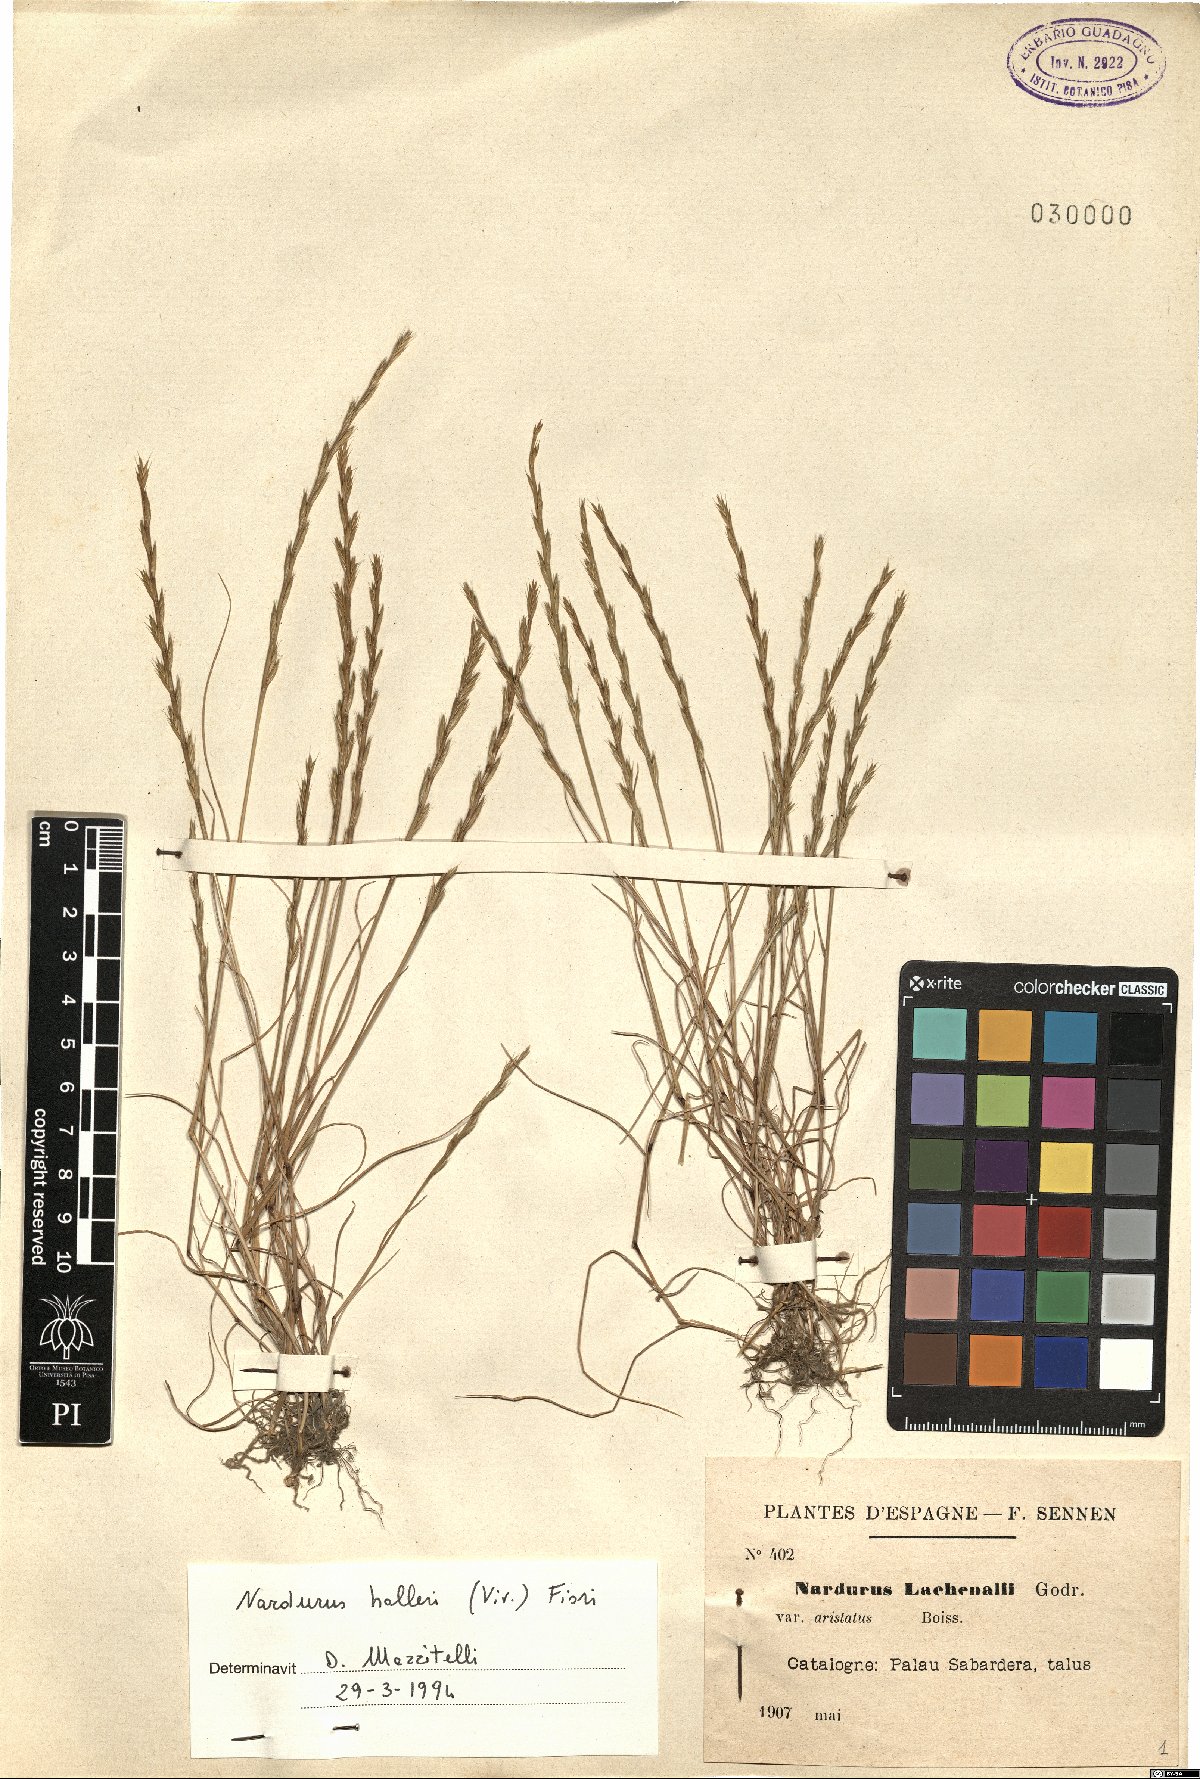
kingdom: Plantae
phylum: Tracheophyta
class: Liliopsida
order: Poales
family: Poaceae
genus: Festuca
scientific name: Festuca lachenalii
